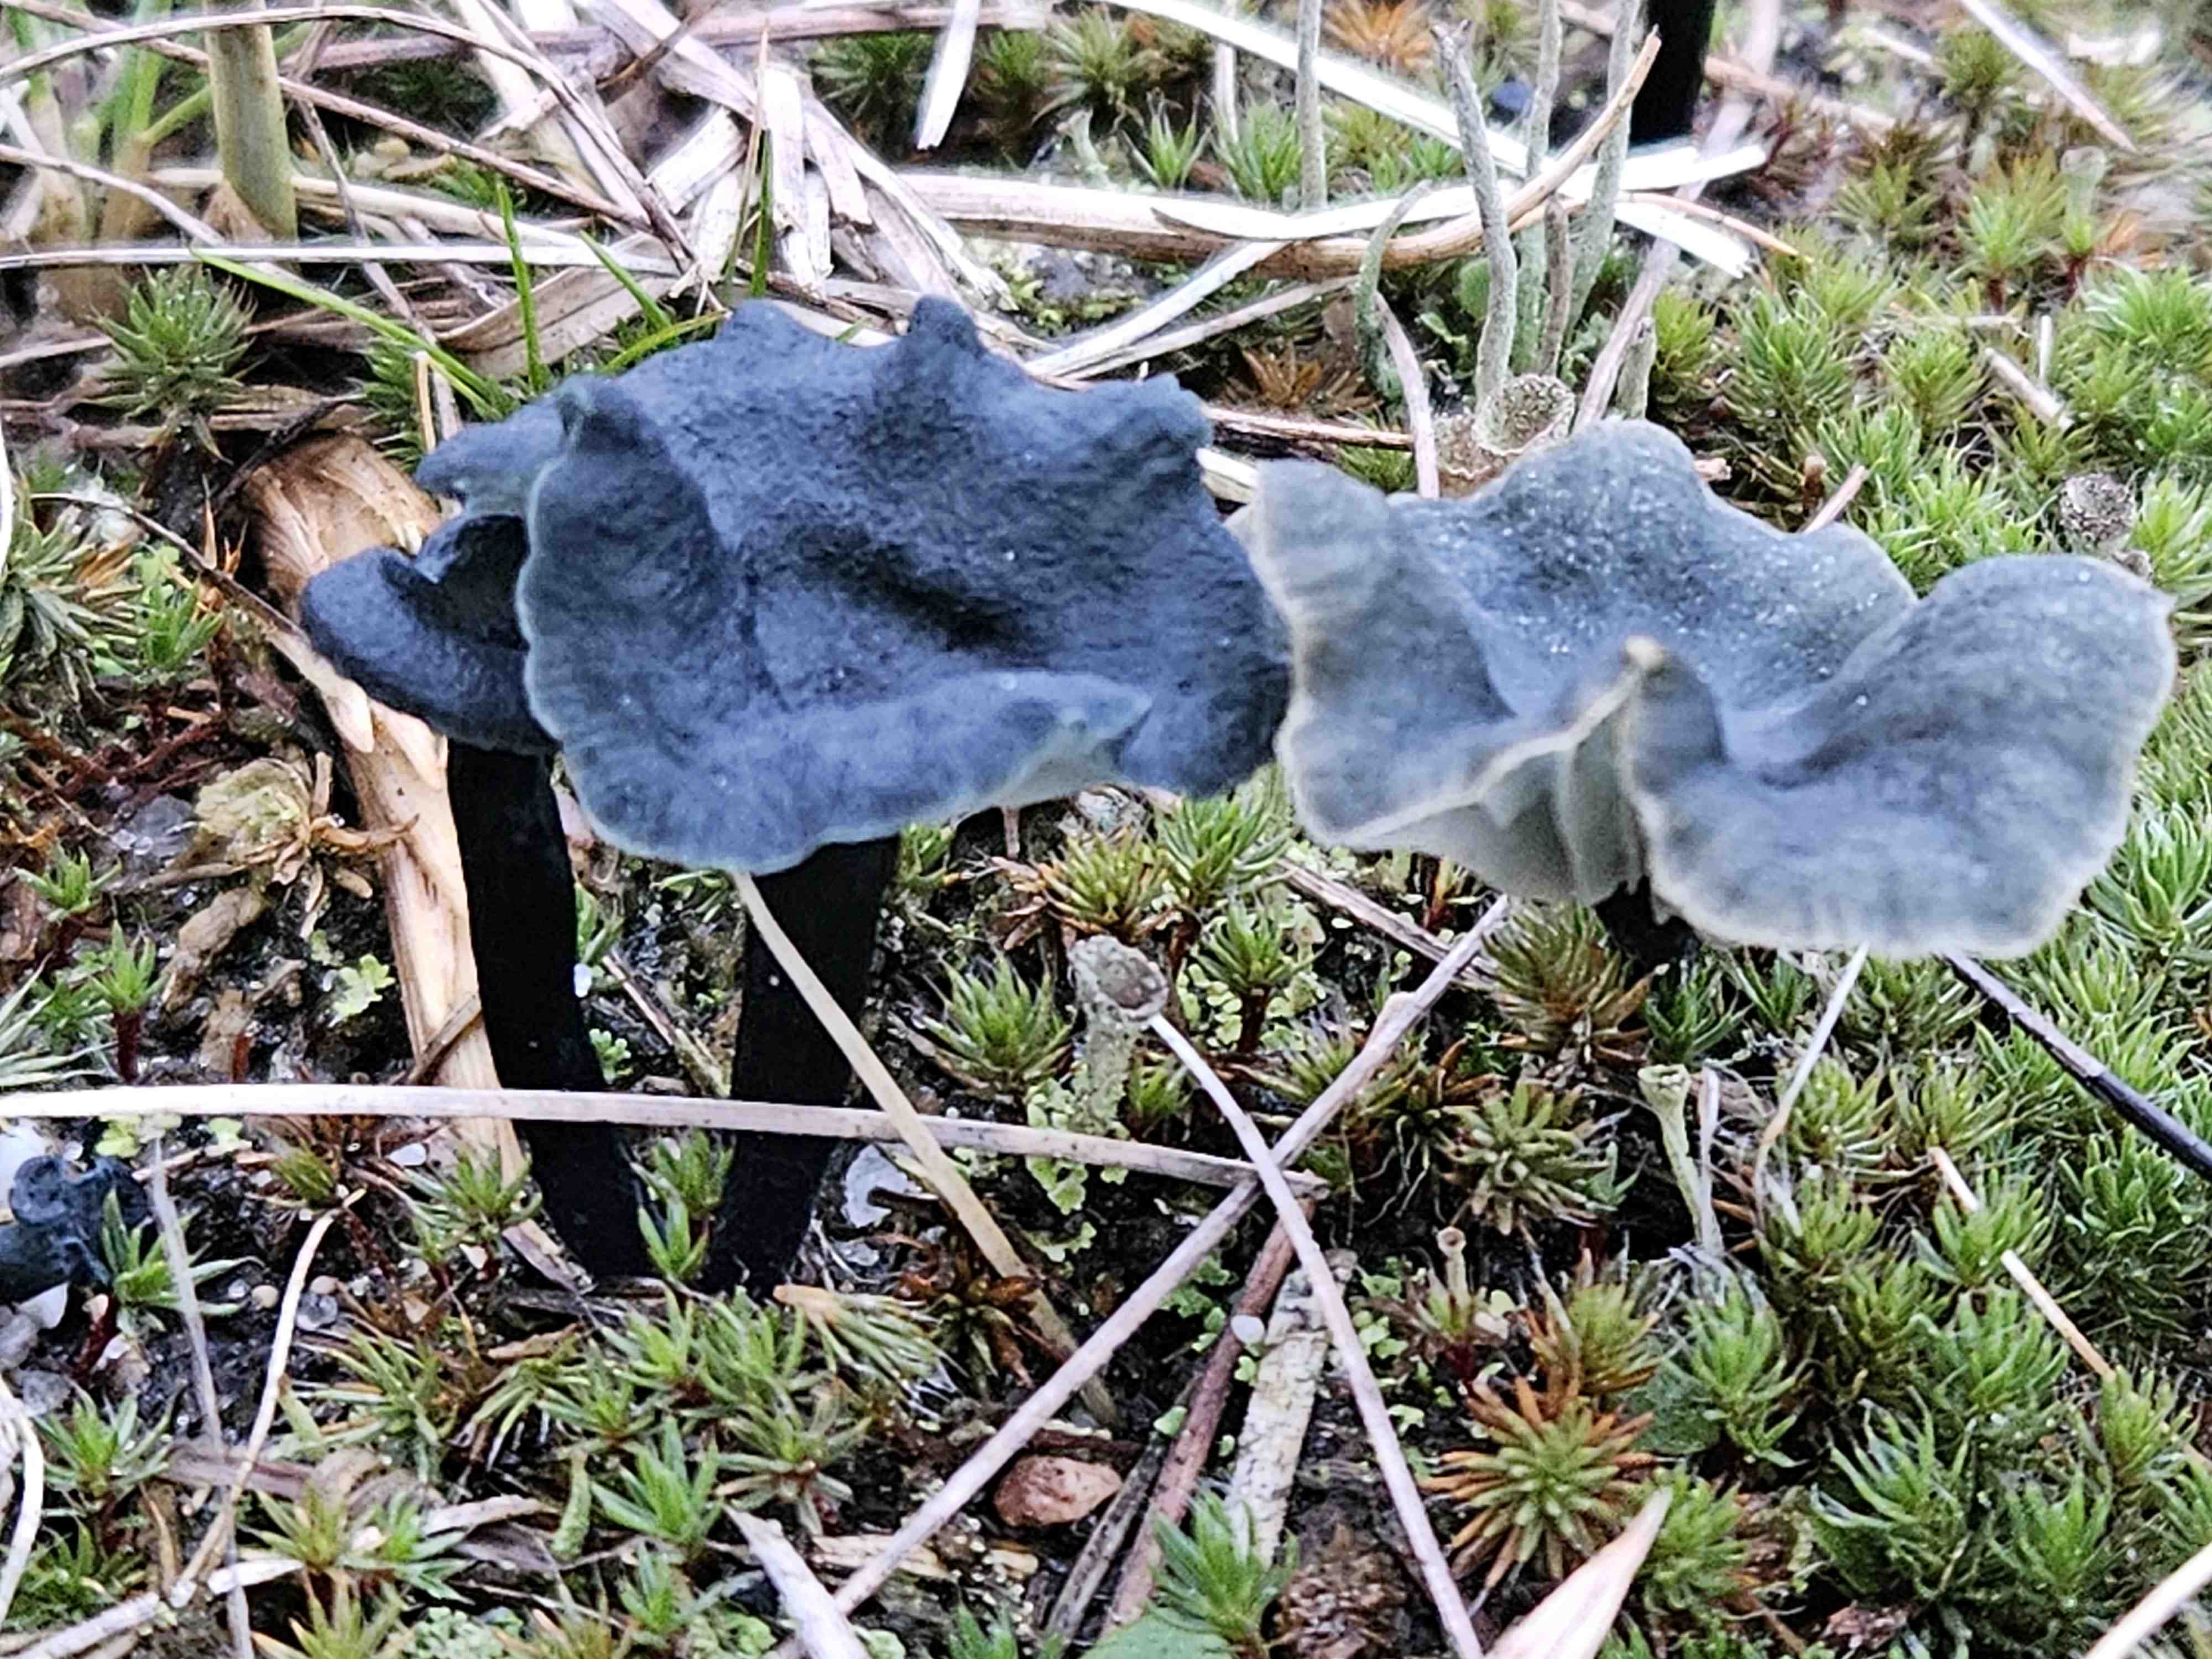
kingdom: Fungi
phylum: Basidiomycota
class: Agaricomycetes
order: Agaricales
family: Hygrophoraceae
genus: Arrhenia
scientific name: Arrhenia chlorocyanea
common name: blågrøn fontænehat
